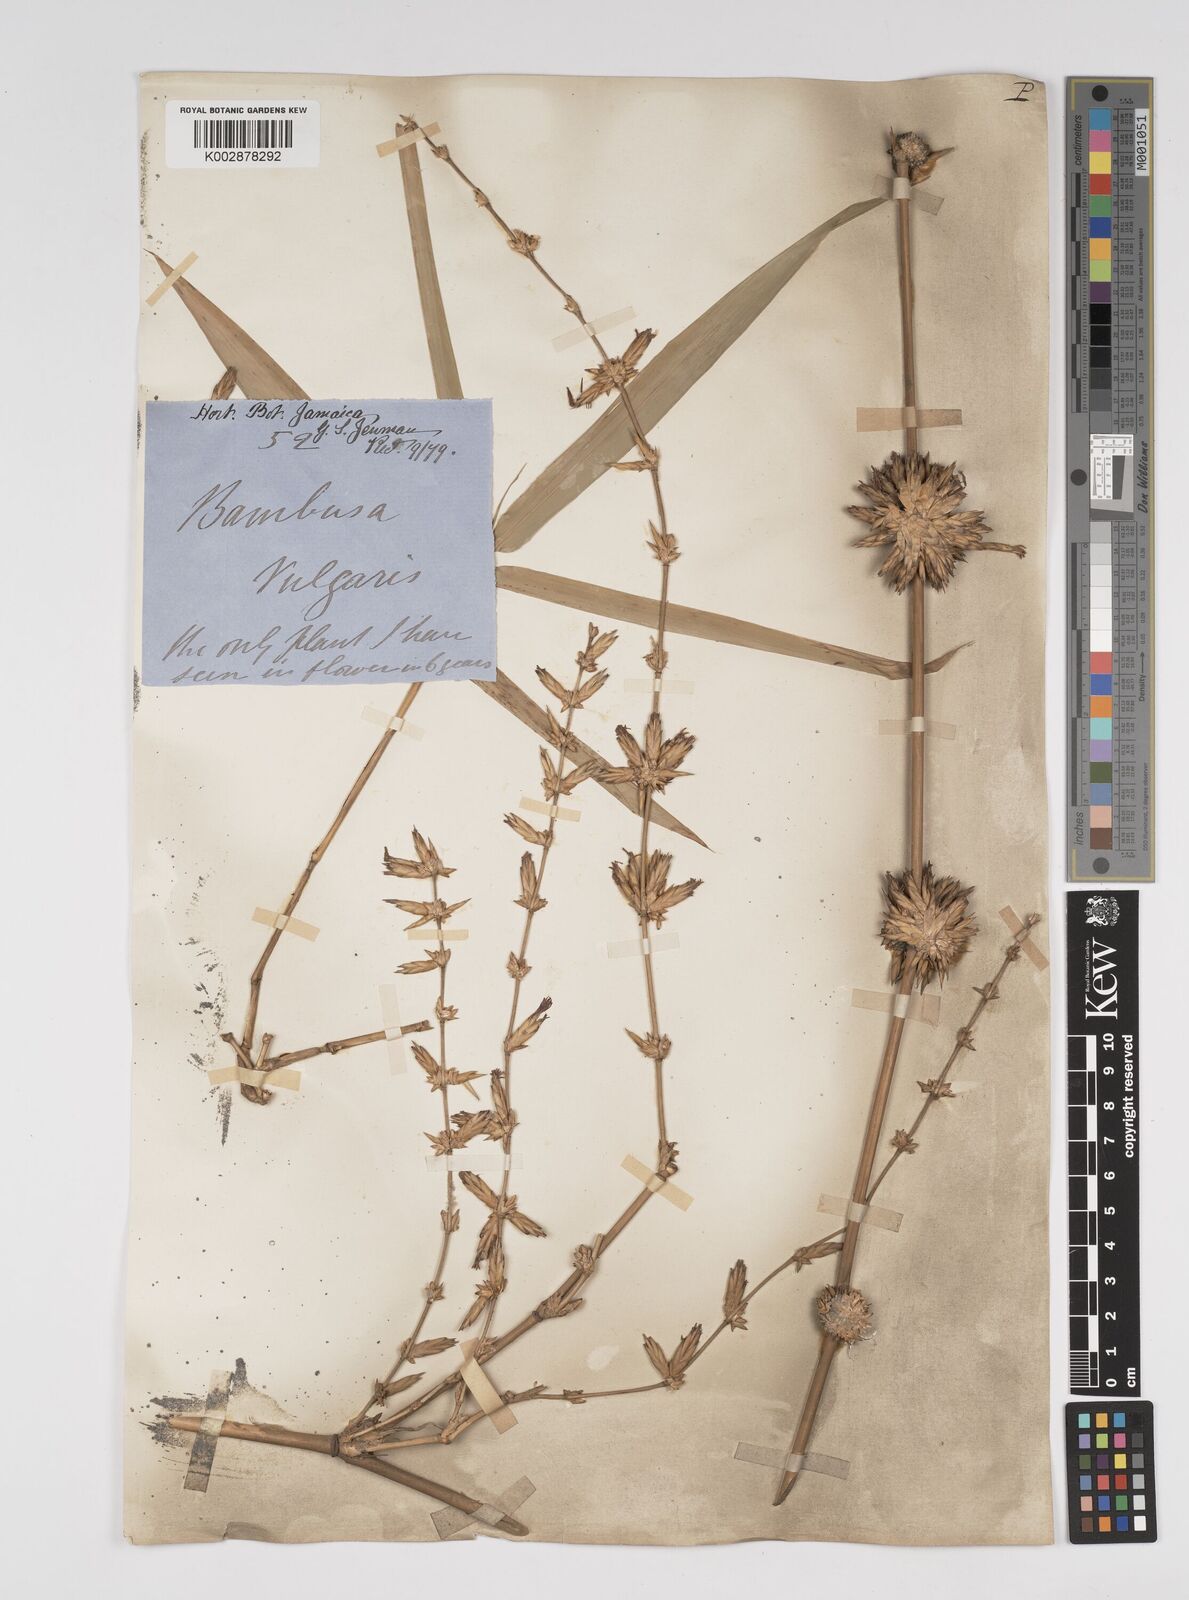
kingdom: Plantae
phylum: Tracheophyta
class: Liliopsida
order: Poales
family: Poaceae
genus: Bambusa
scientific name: Bambusa vulgaris
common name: Common bamboo
